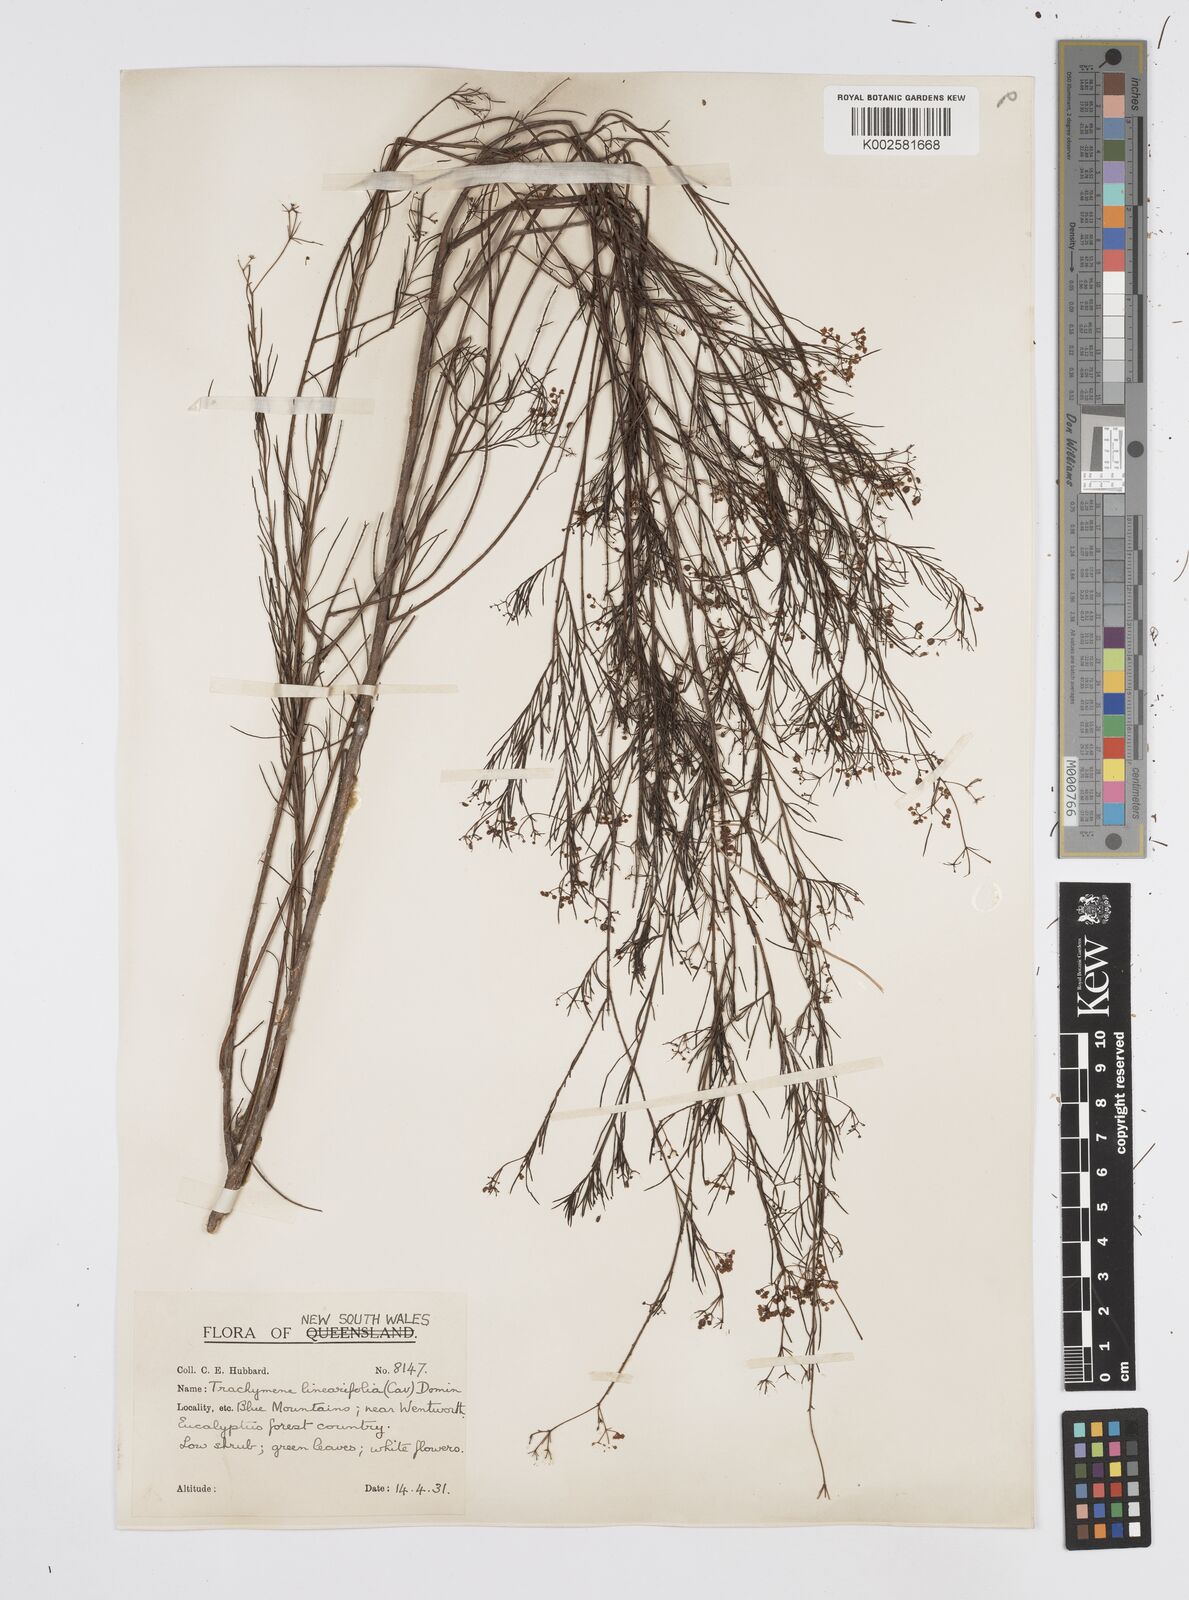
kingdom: Plantae
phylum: Tracheophyta
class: Magnoliopsida
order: Apiales
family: Apiaceae
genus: Platysace
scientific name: Platysace linearifolia
